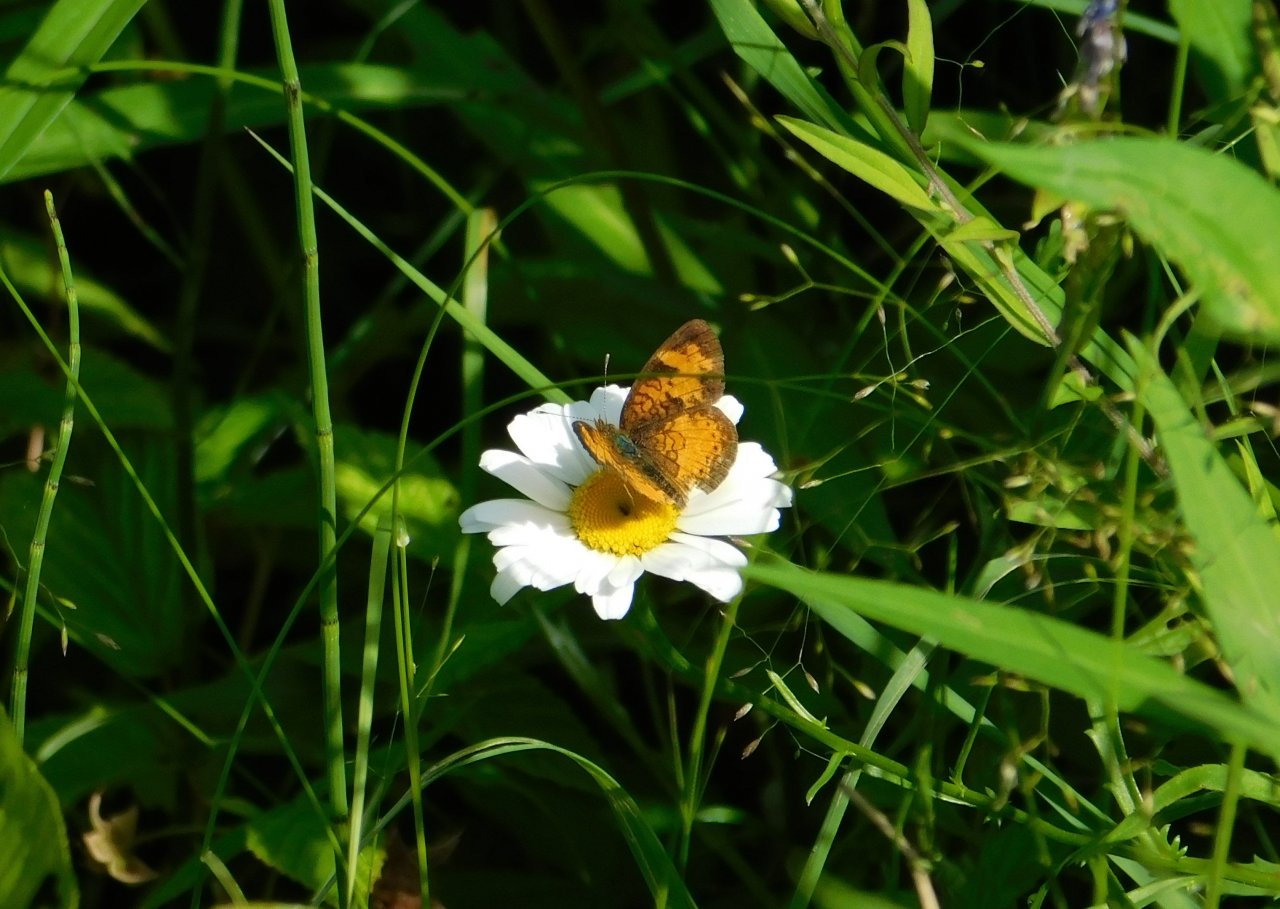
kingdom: Animalia
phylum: Arthropoda
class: Insecta
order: Lepidoptera
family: Nymphalidae
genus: Phyciodes
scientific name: Phyciodes tharos
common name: Northern Crescent
